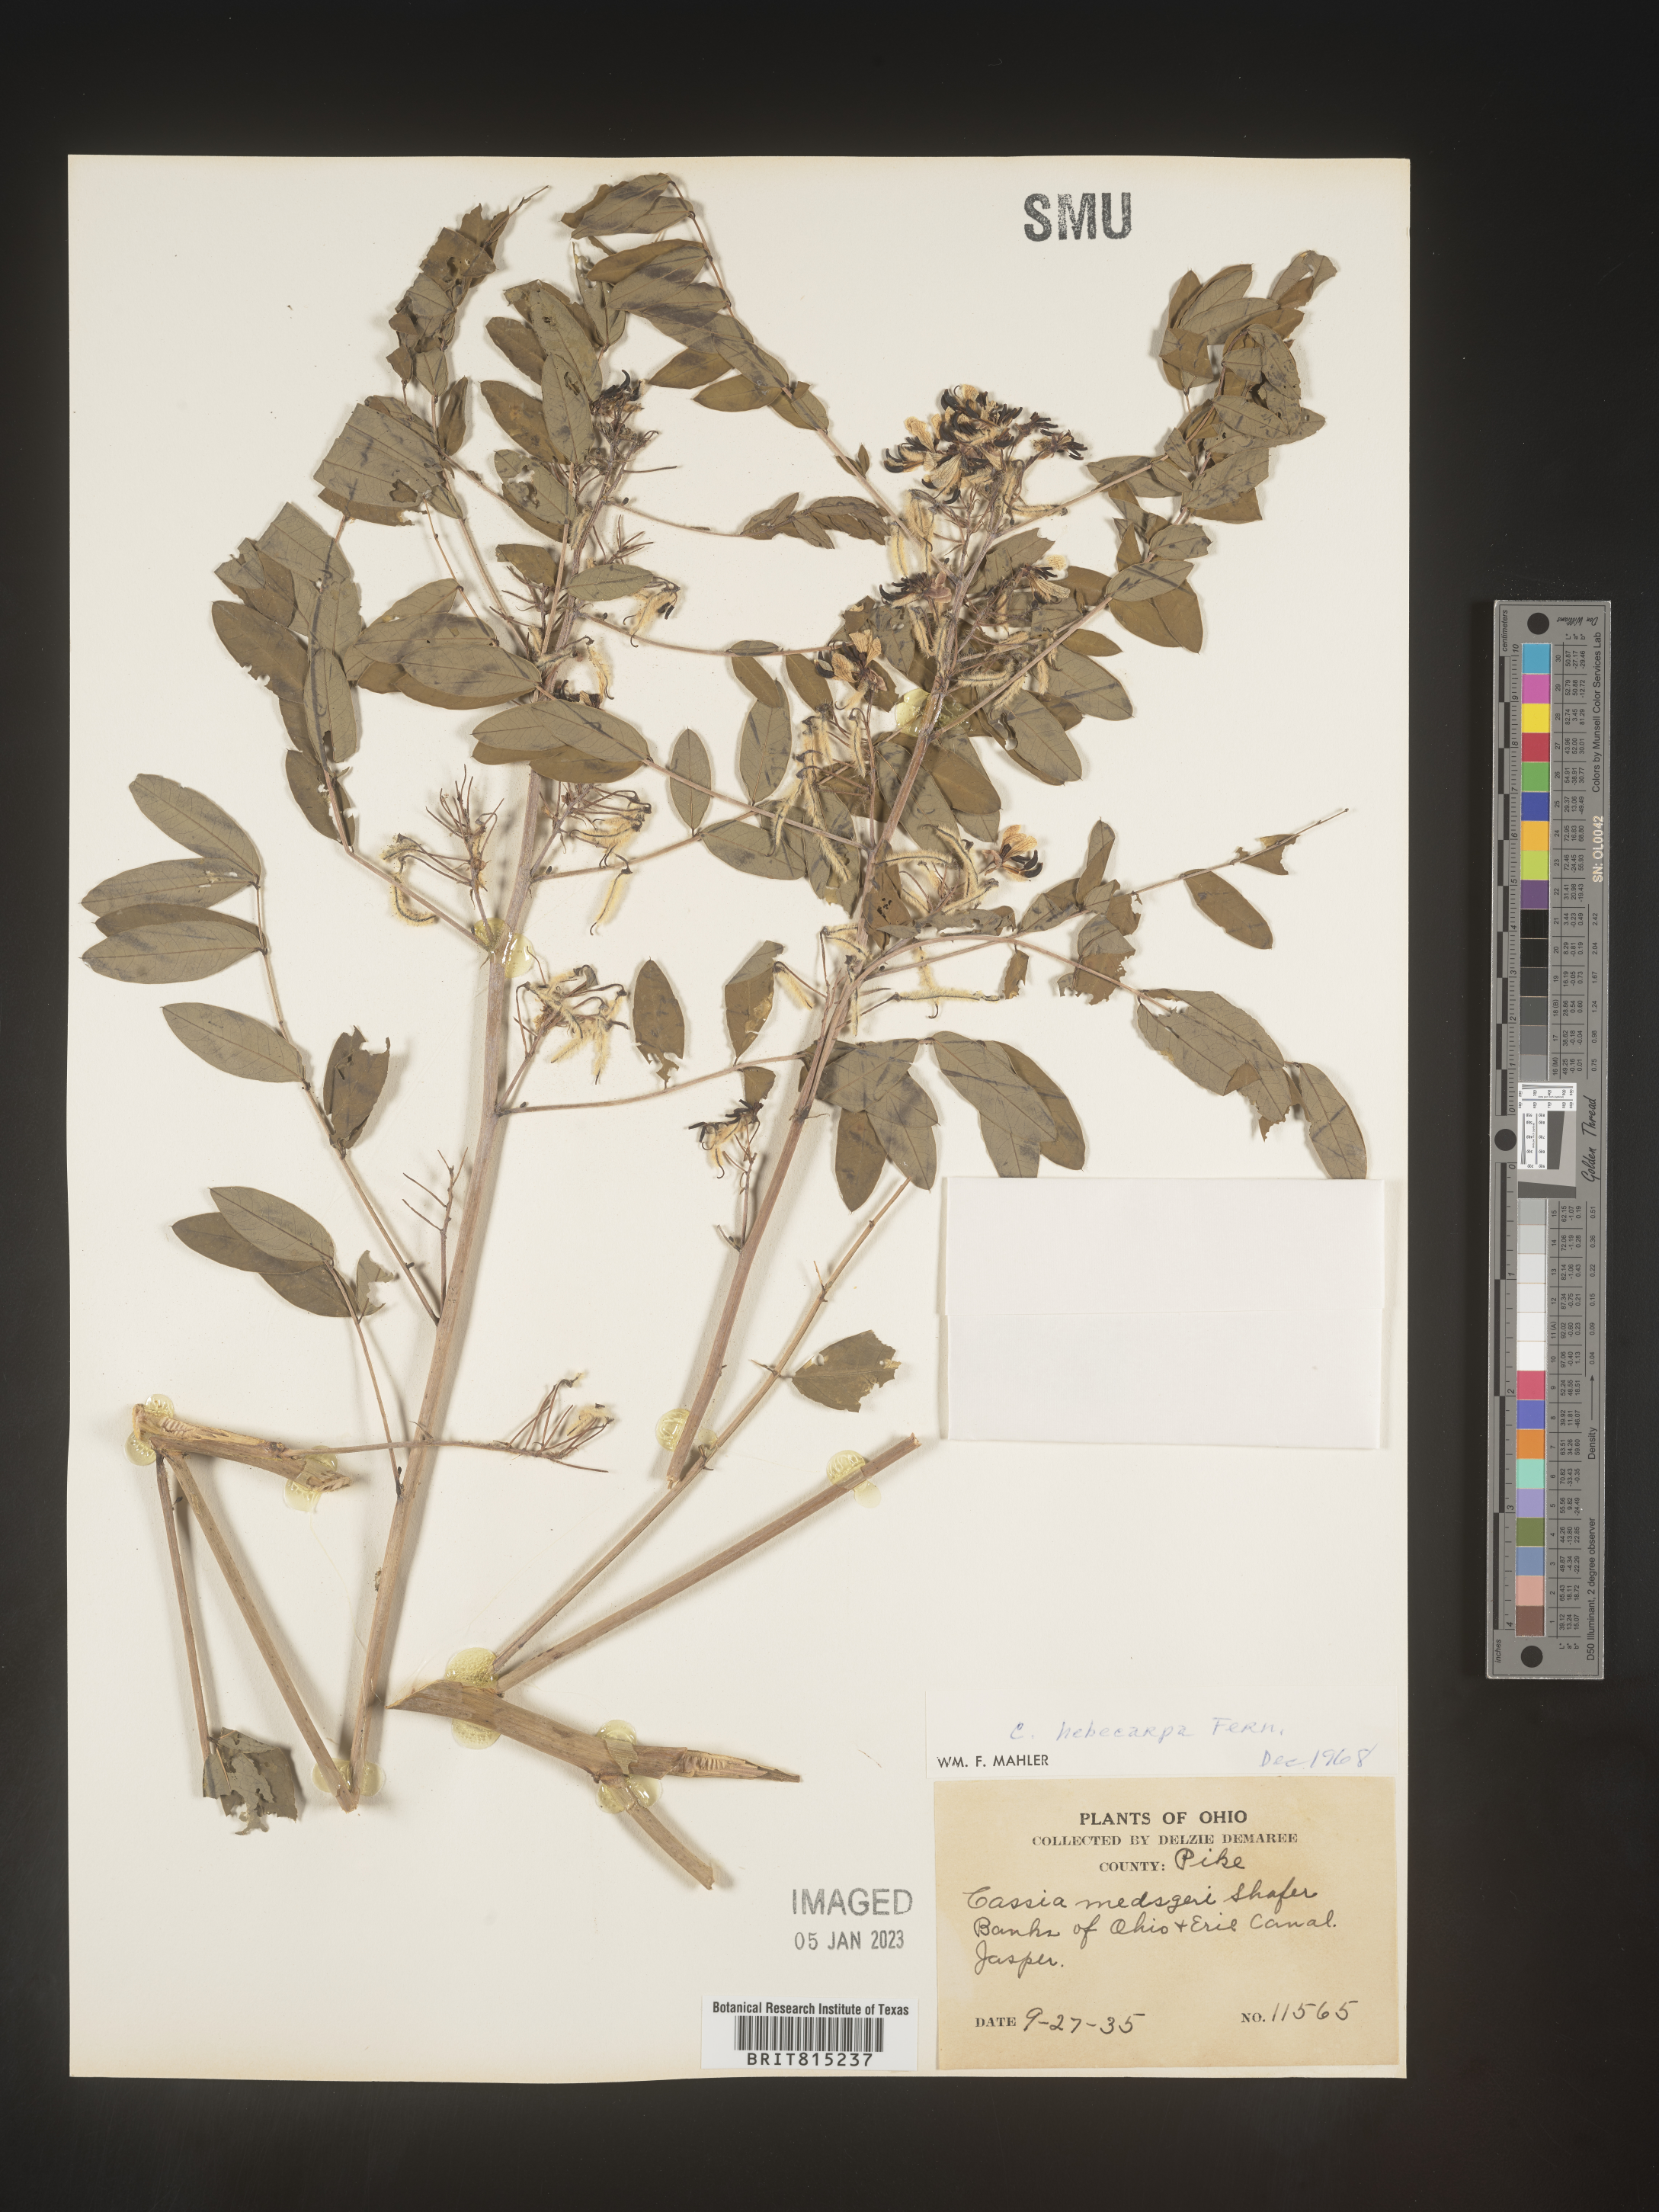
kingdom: Plantae
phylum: Tracheophyta
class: Magnoliopsida
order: Fabales
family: Fabaceae
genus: Senna
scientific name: Senna hebecarpa
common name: Wild senna
